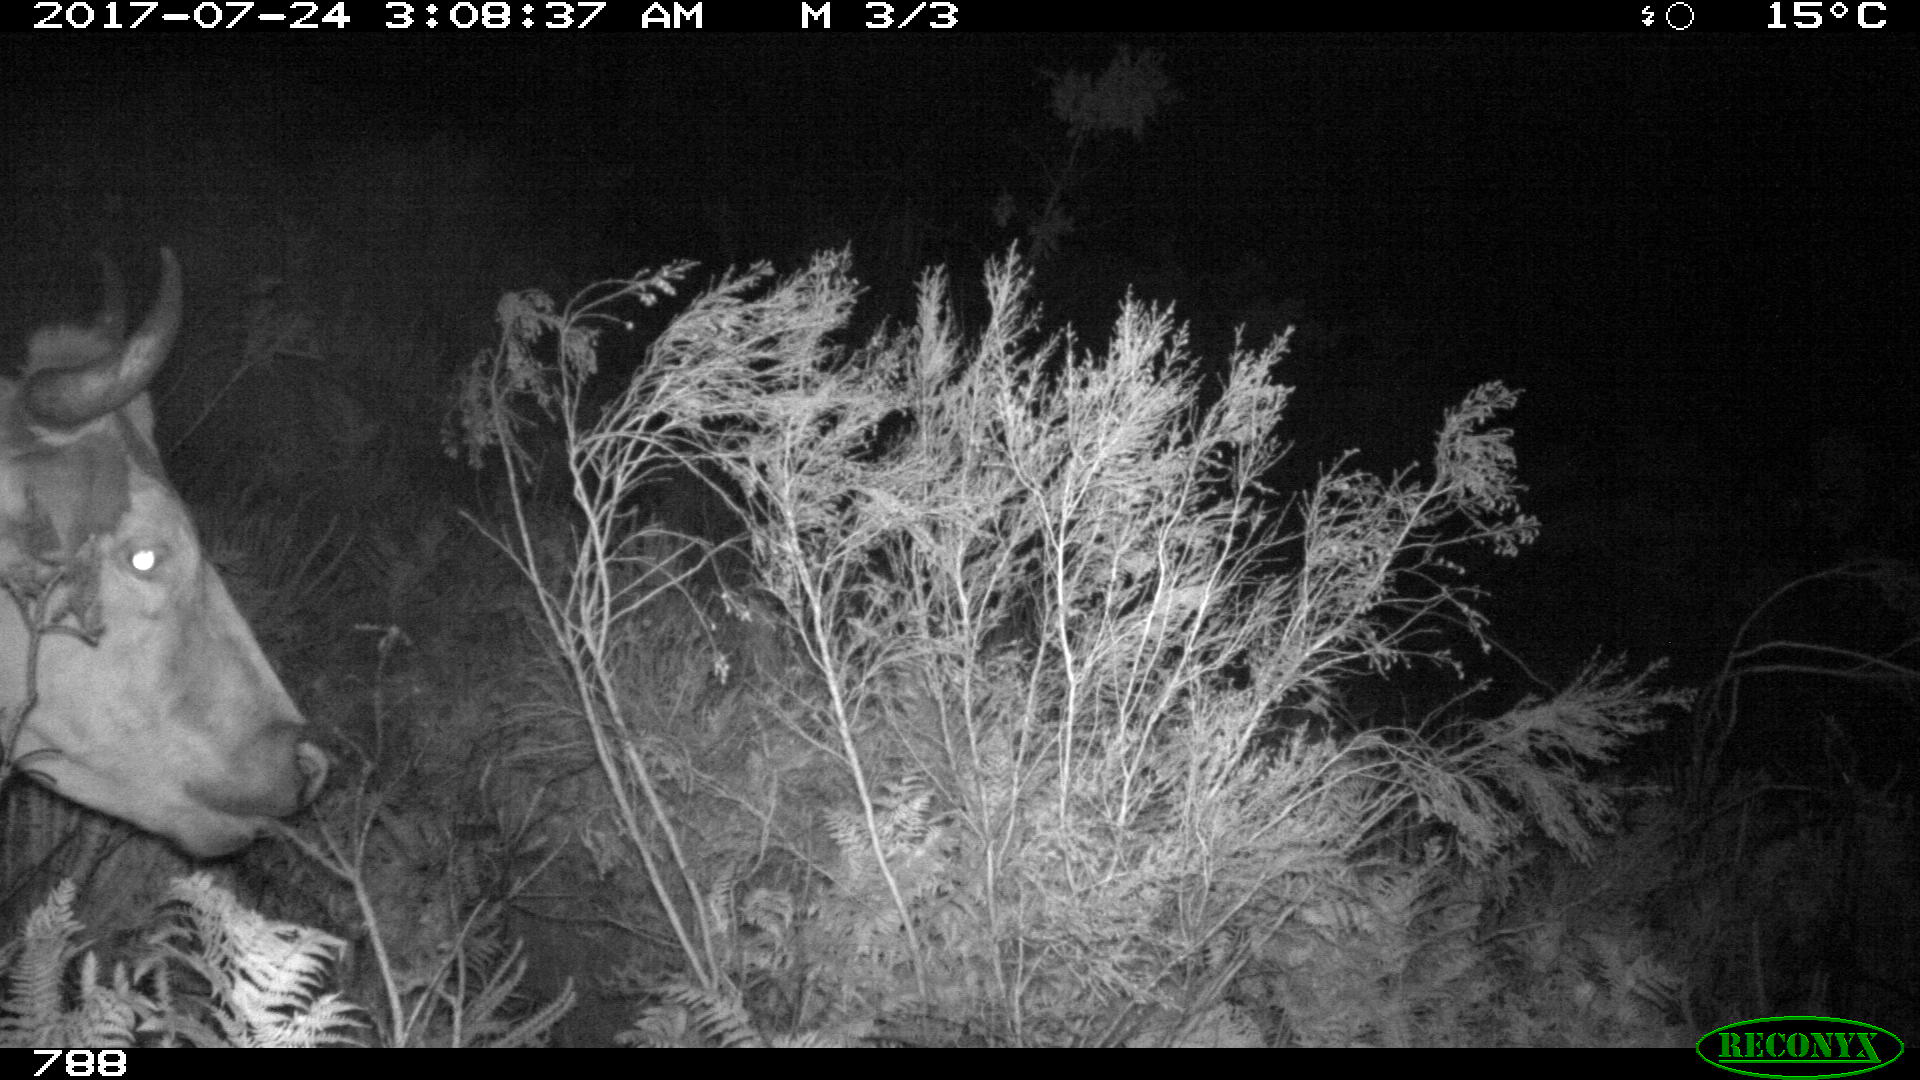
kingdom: Animalia
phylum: Chordata
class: Mammalia
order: Artiodactyla
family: Bovidae
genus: Bos
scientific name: Bos taurus
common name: Domesticated cattle
